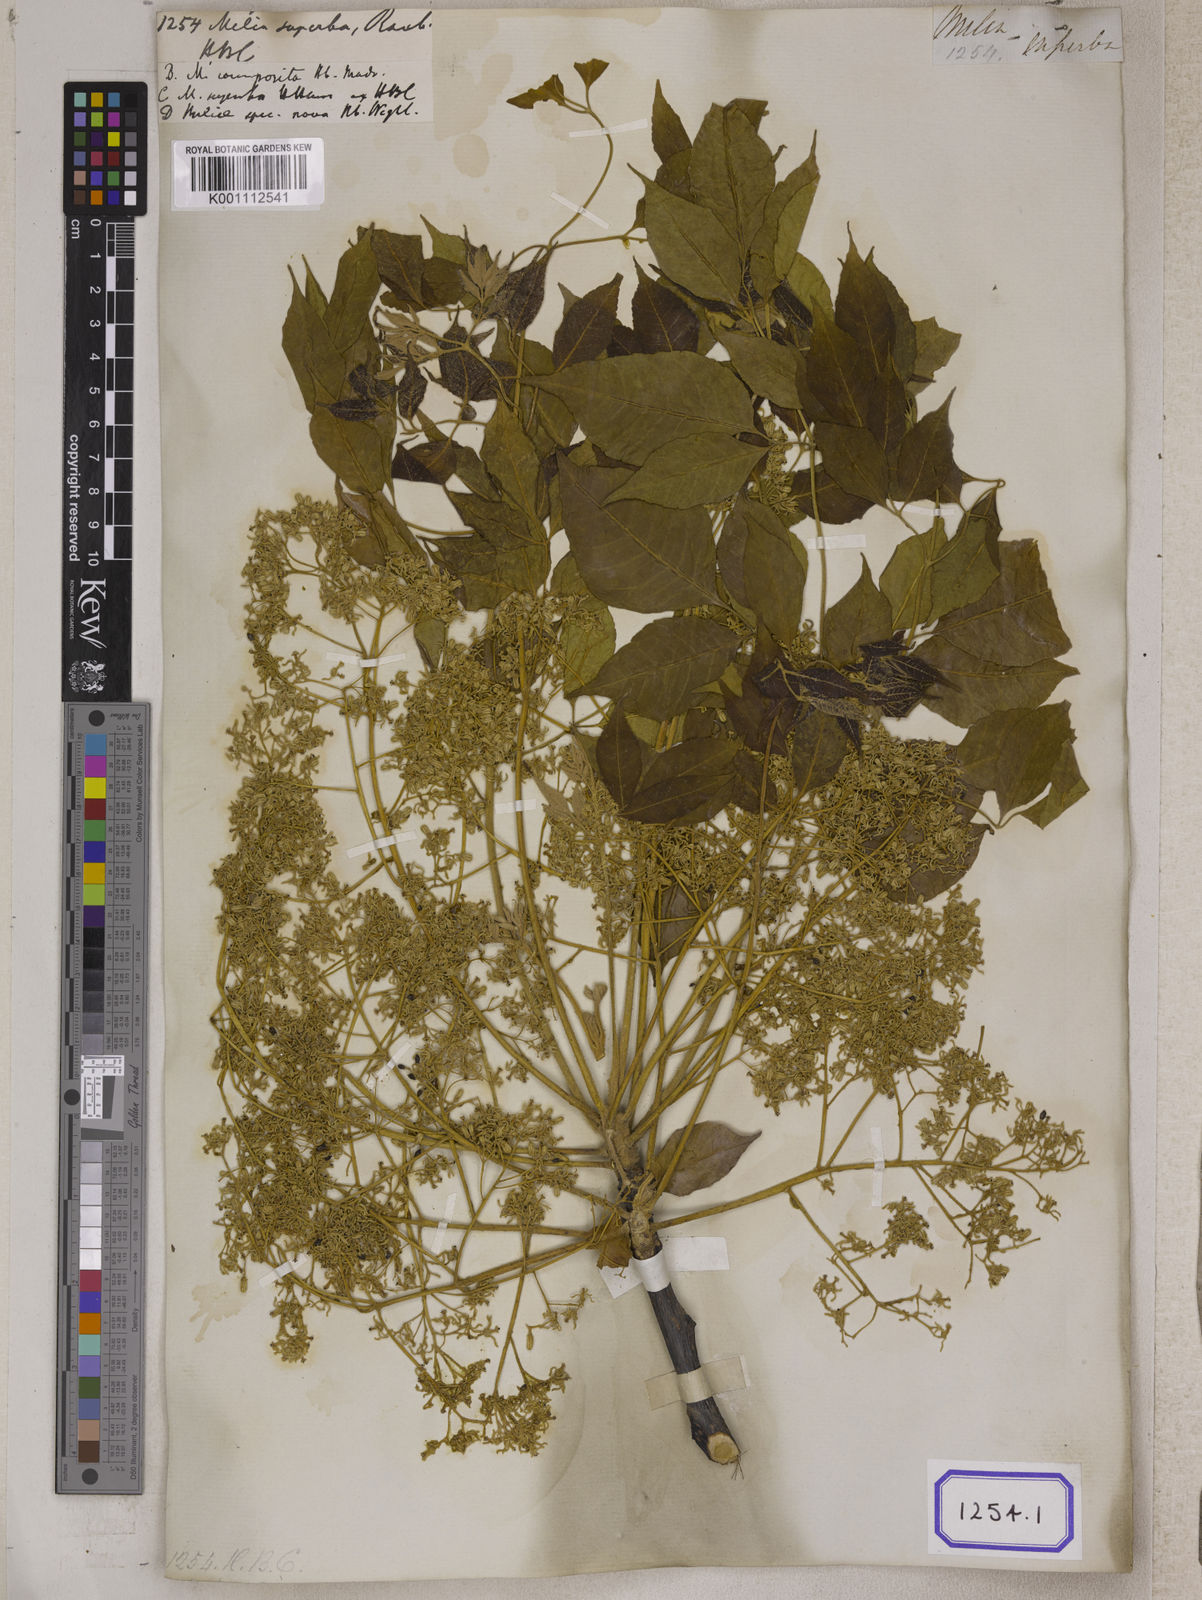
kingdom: Plantae
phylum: Tracheophyta
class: Magnoliopsida
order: Sapindales
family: Meliaceae
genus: Melia
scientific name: Melia azedarach
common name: Chinaberrytree
